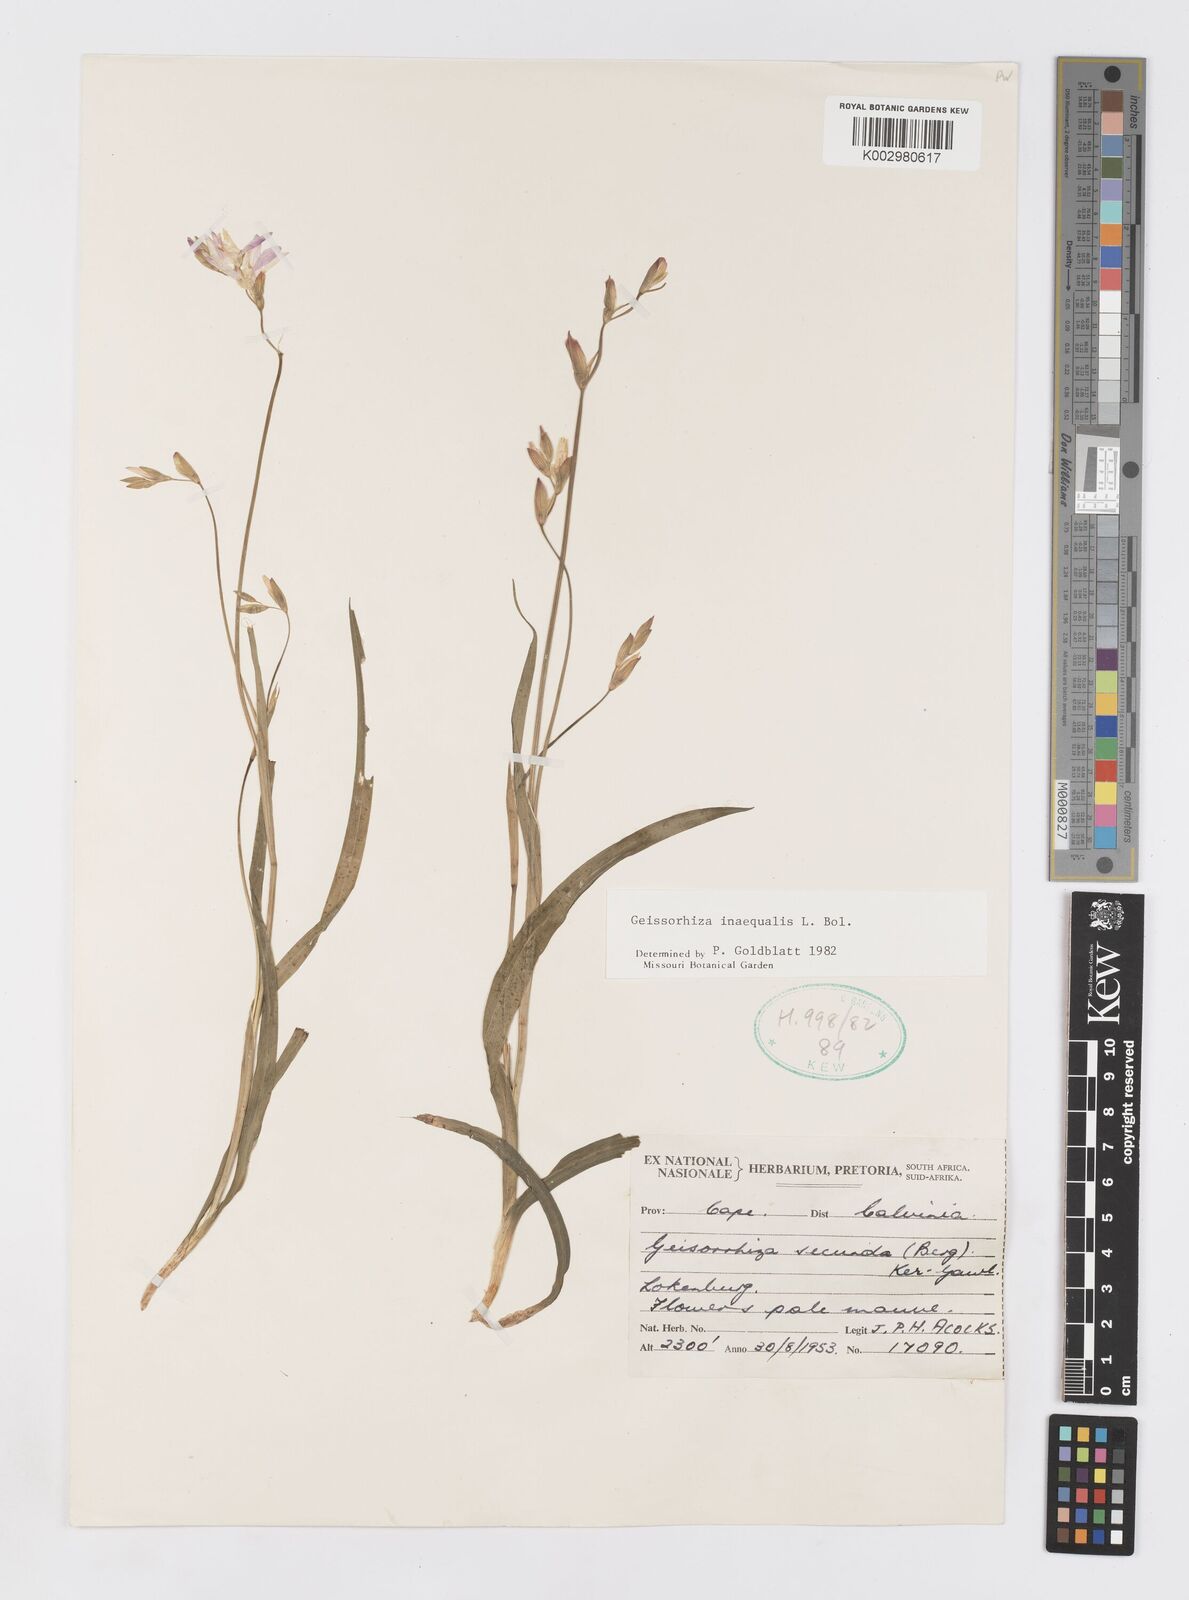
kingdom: Plantae
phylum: Tracheophyta
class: Liliopsida
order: Asparagales
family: Iridaceae
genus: Geissorhiza
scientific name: Geissorhiza inaequalis
